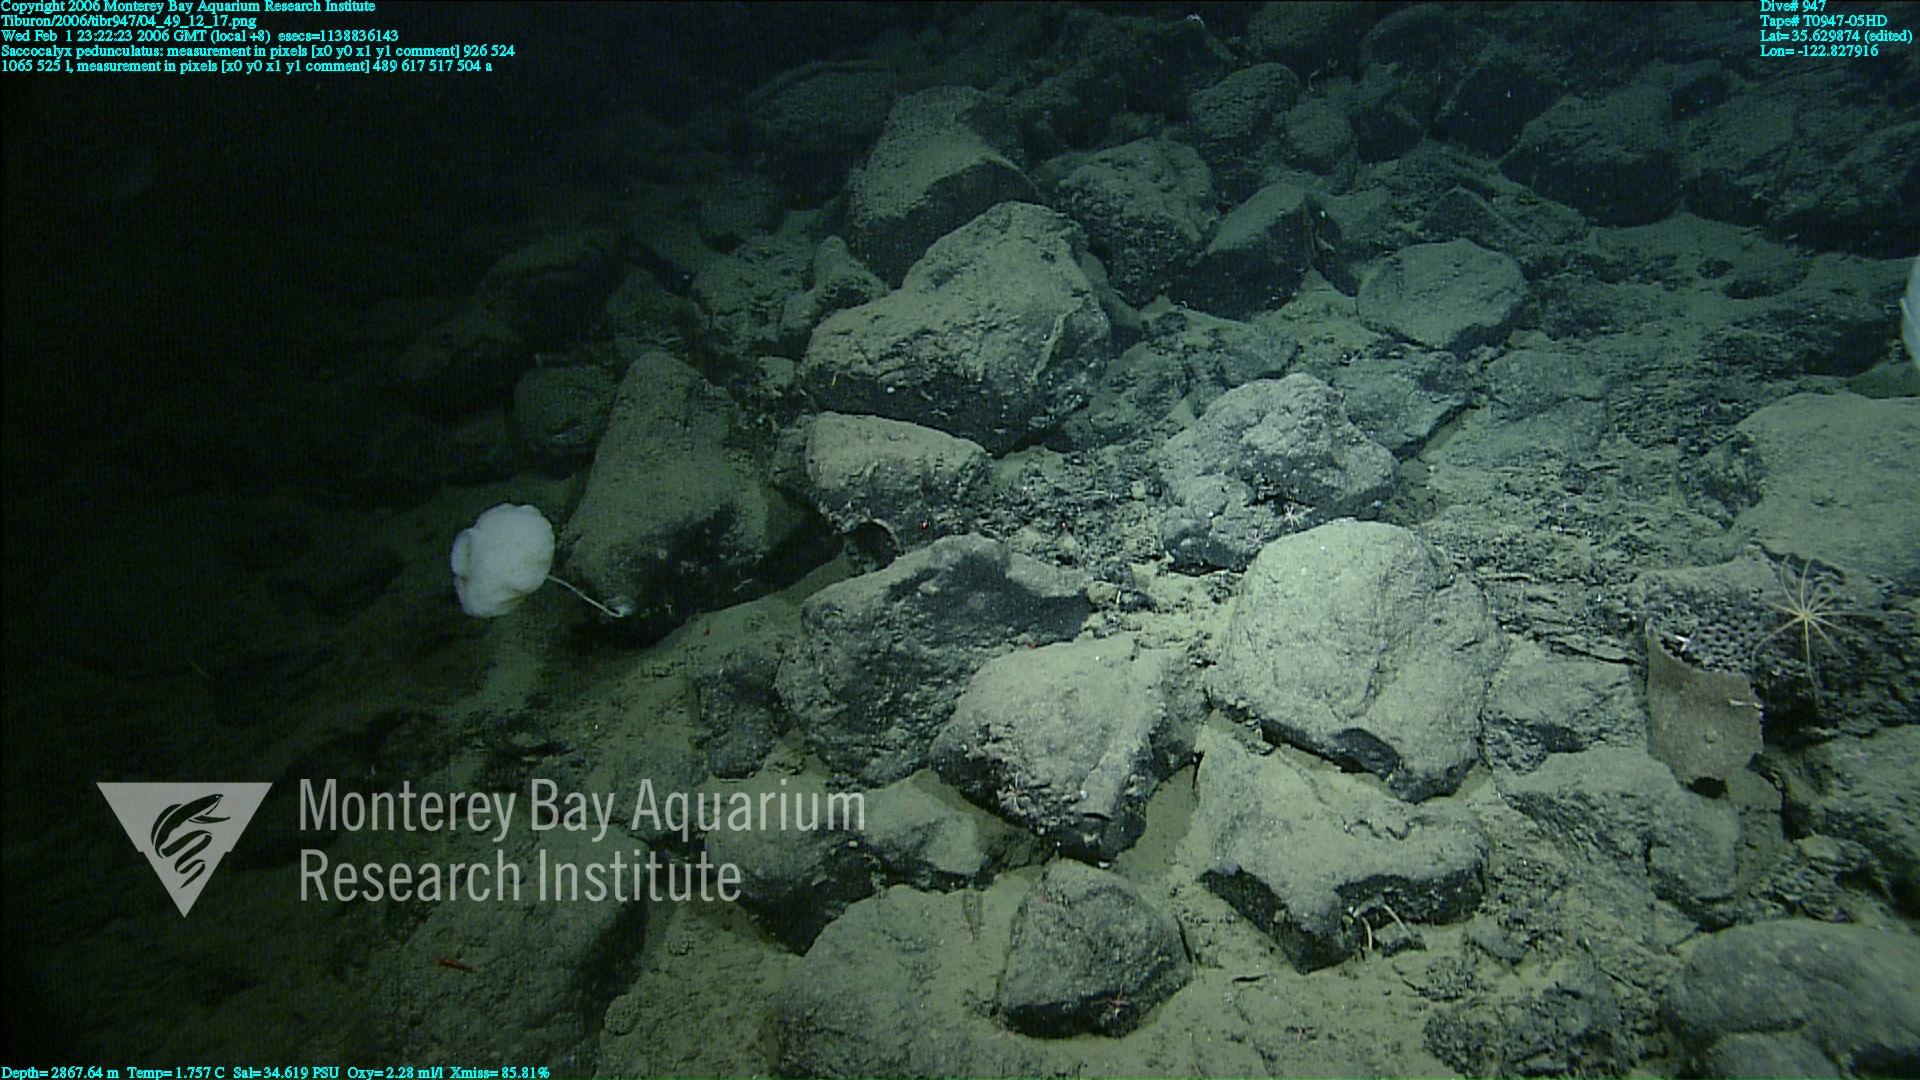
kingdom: Animalia
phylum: Porifera
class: Hexactinellida
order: Lyssacinosida
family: Euplectellidae
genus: Saccocalyx
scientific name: Saccocalyx pedunculatus
